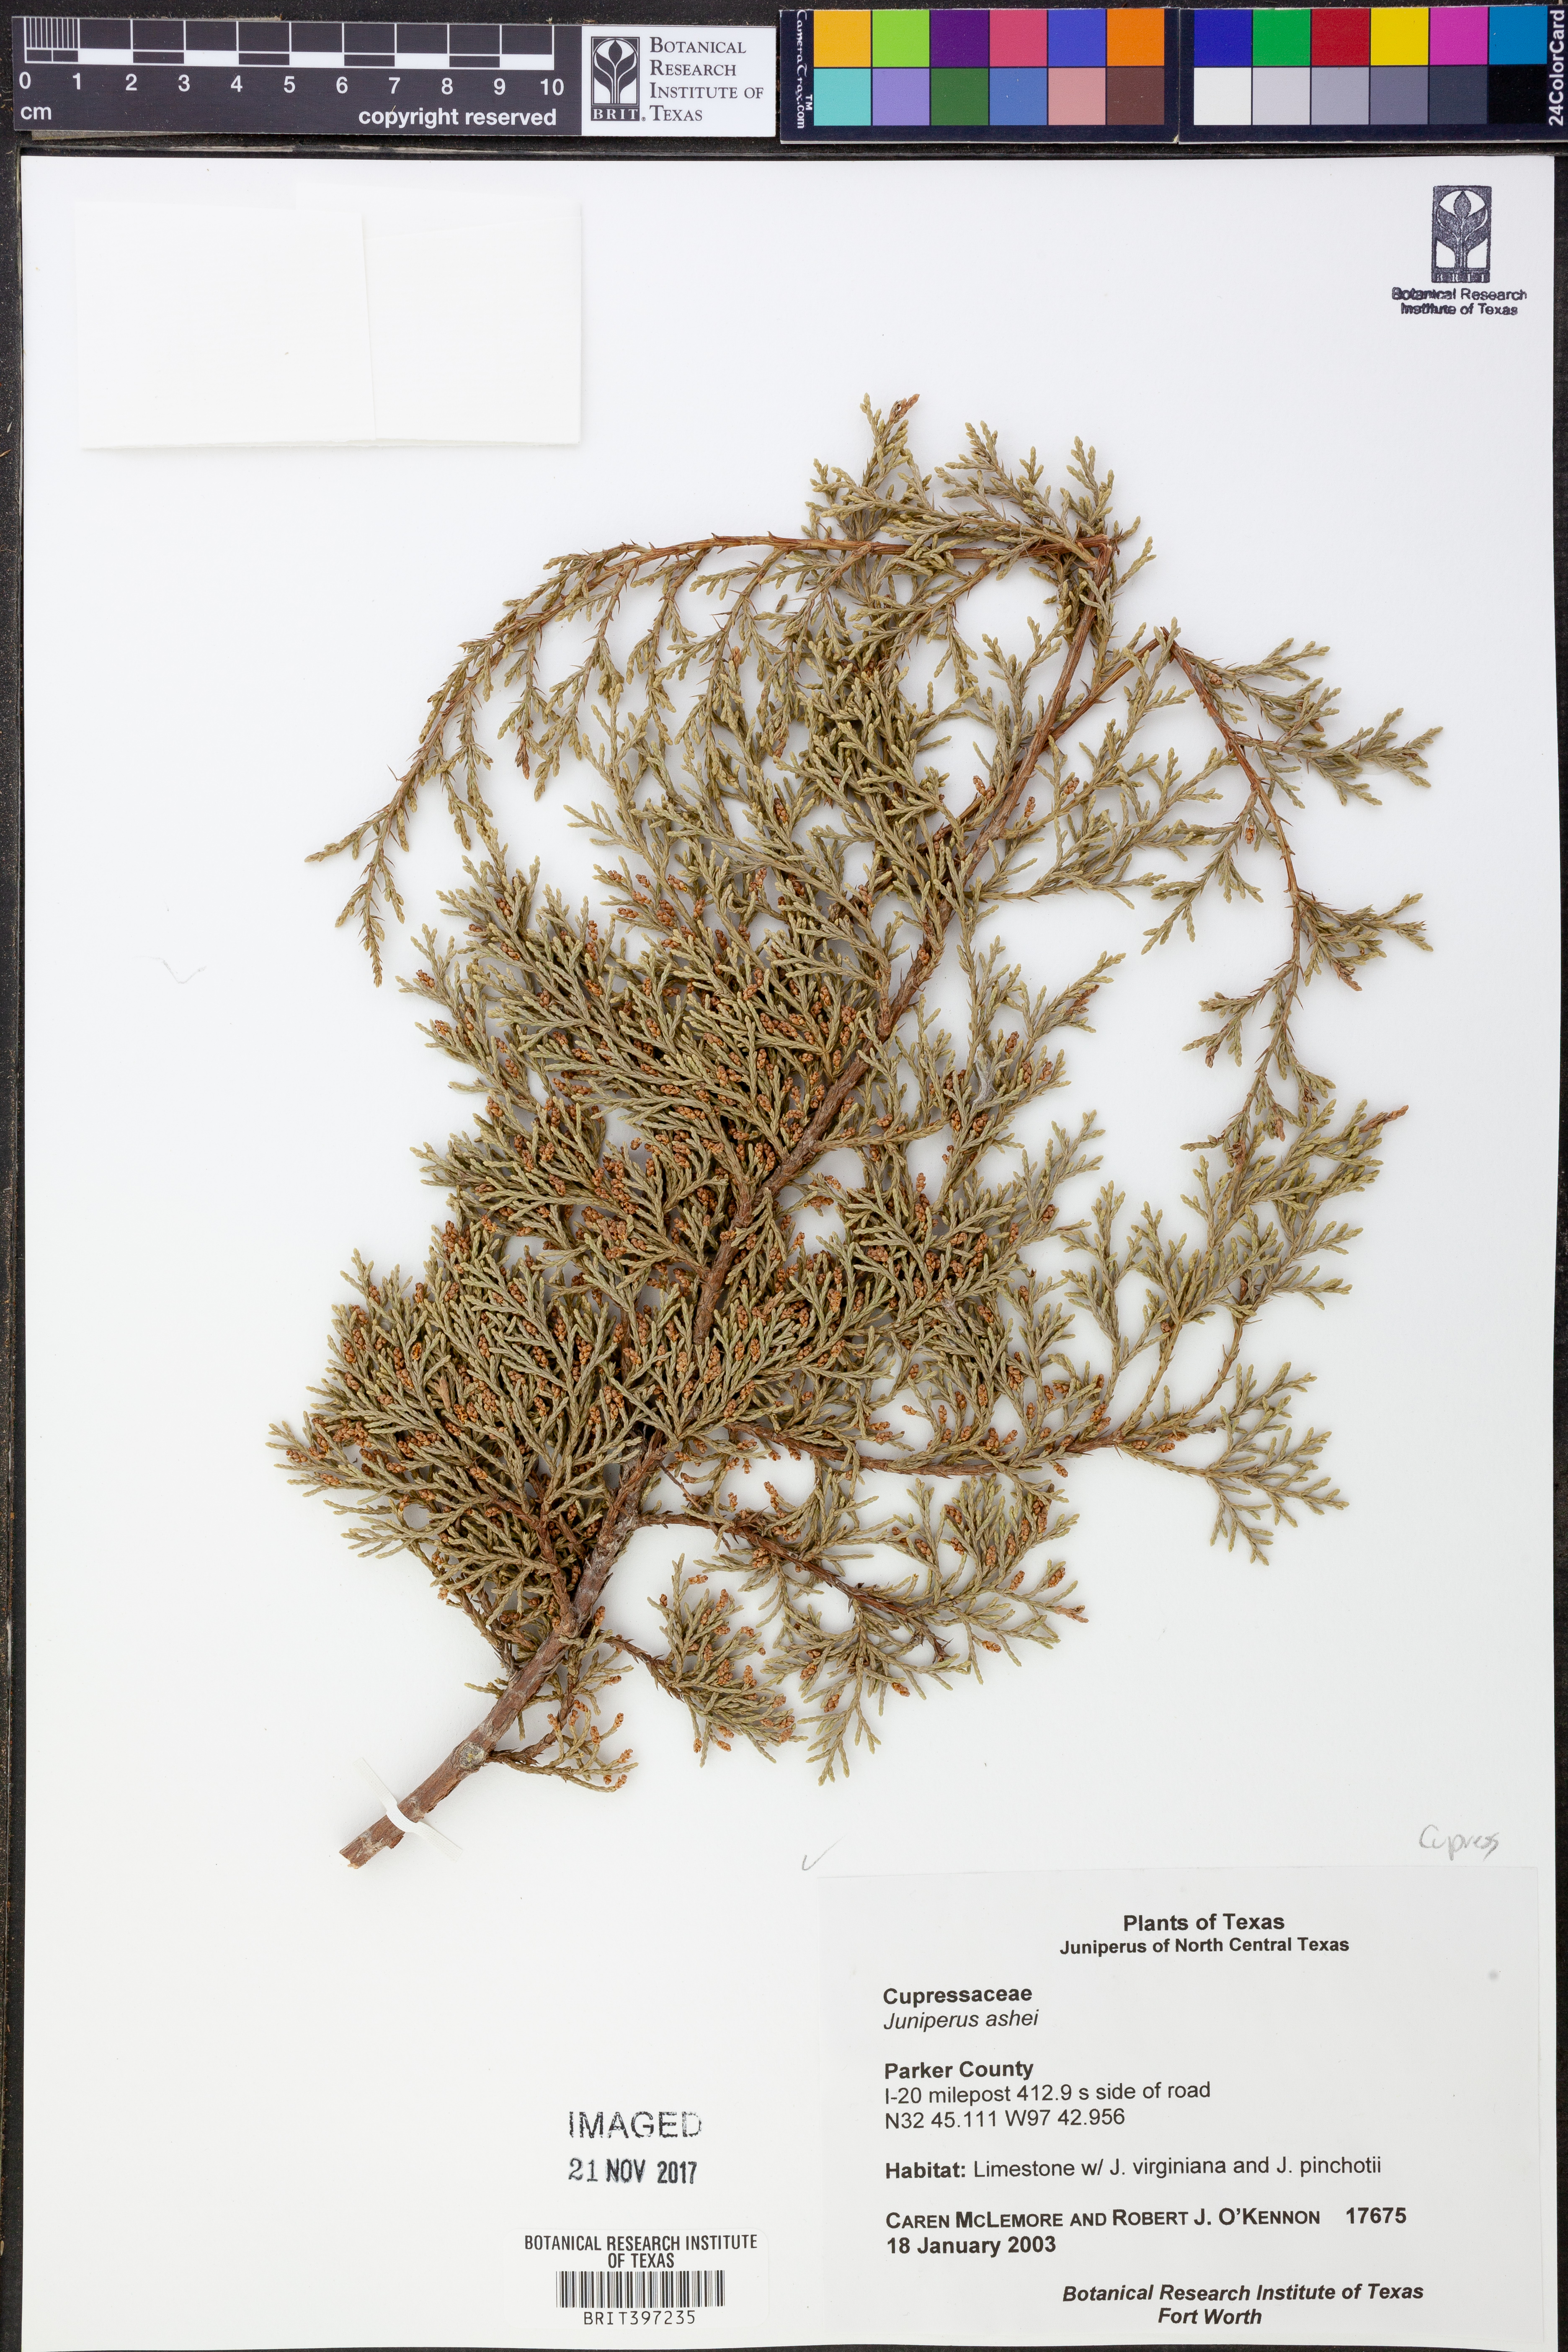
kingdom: Plantae
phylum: Tracheophyta
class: Pinopsida
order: Pinales
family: Cupressaceae
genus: Juniperus
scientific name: Juniperus ashei
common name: Mexican juniper
